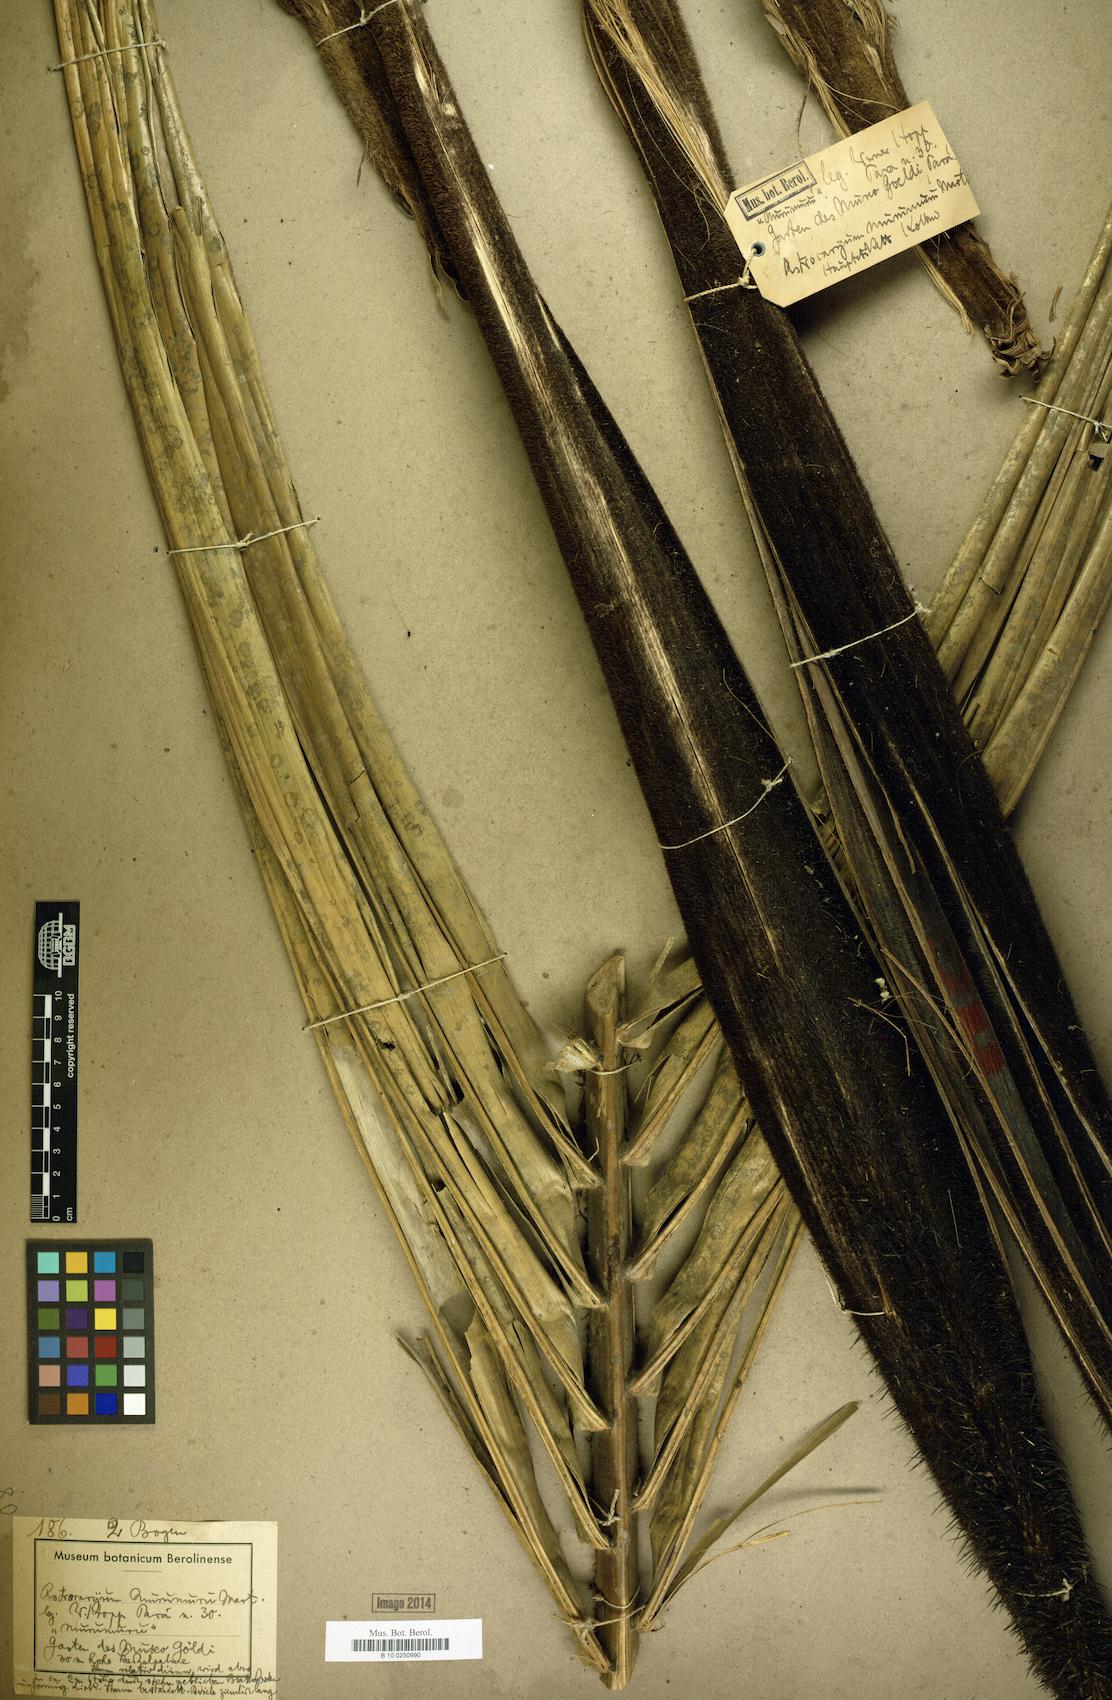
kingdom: Plantae
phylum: Tracheophyta
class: Liliopsida
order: Arecales
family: Arecaceae
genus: Astrocaryum
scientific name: Astrocaryum murumuru
